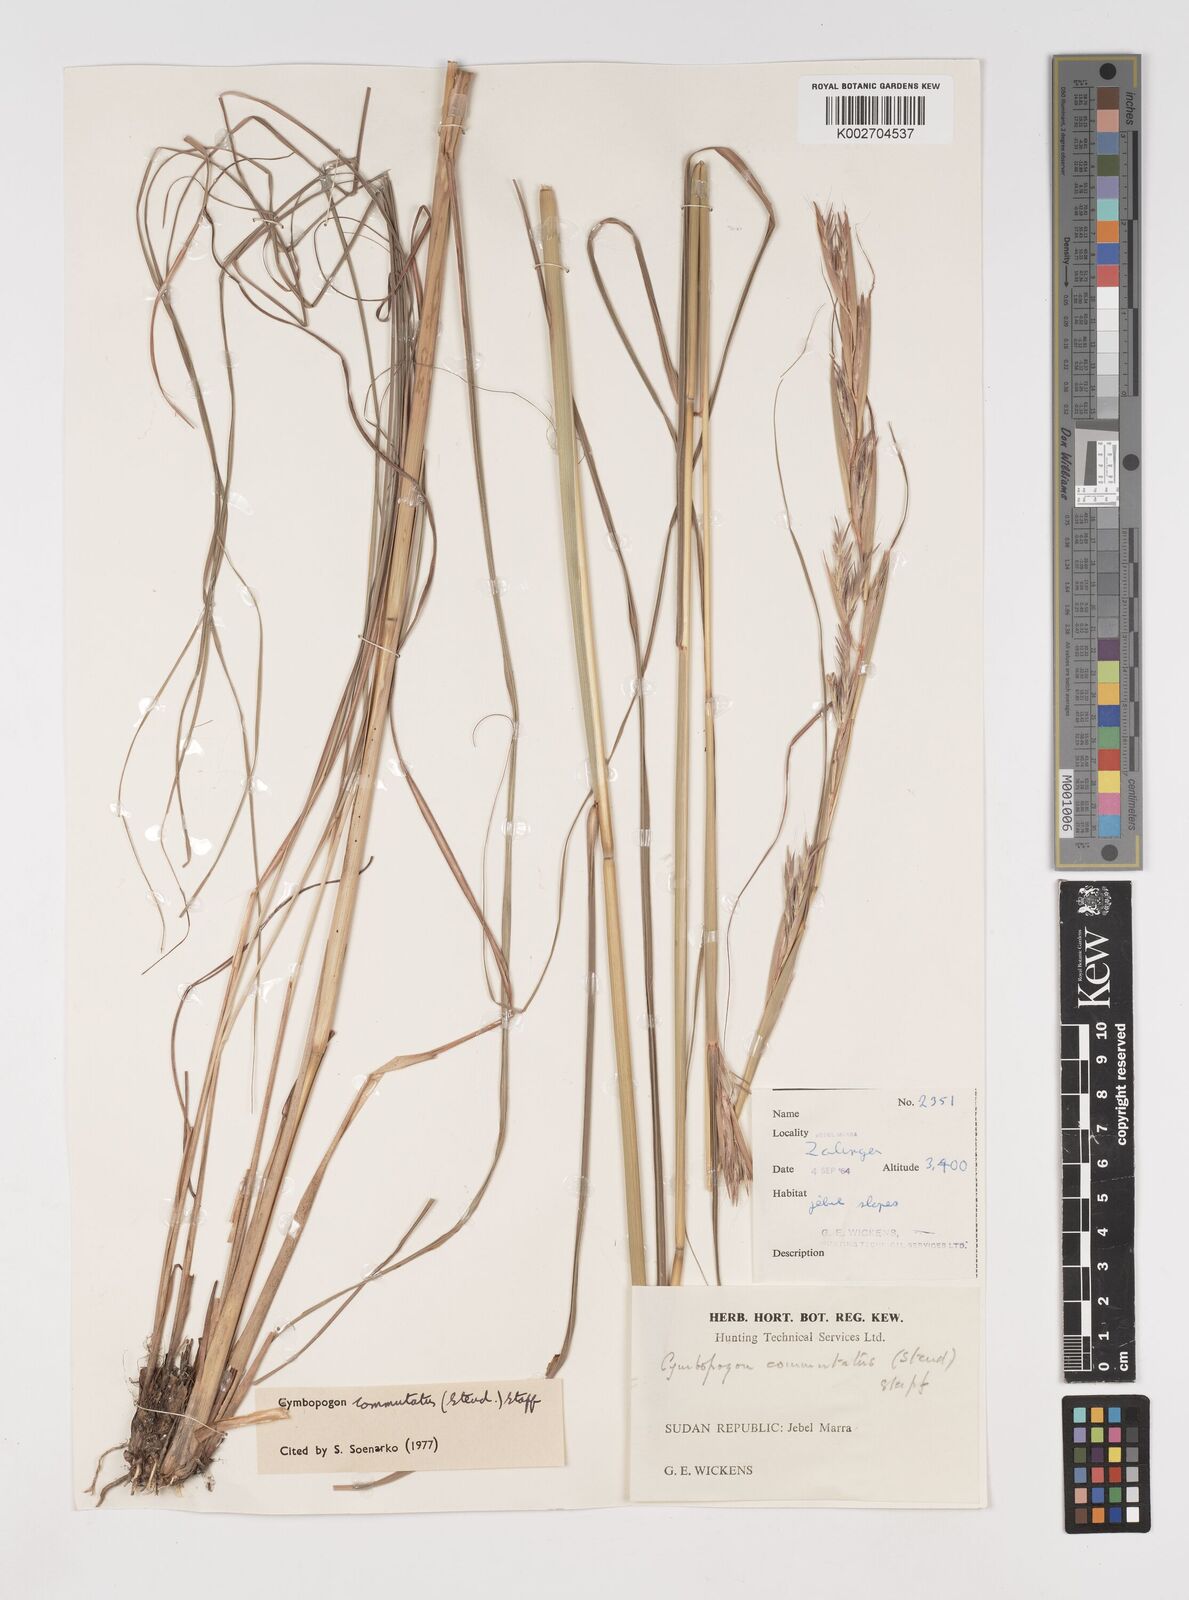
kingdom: Plantae
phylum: Tracheophyta
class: Liliopsida
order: Poales
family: Poaceae
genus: Cymbopogon
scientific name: Cymbopogon commutatus
